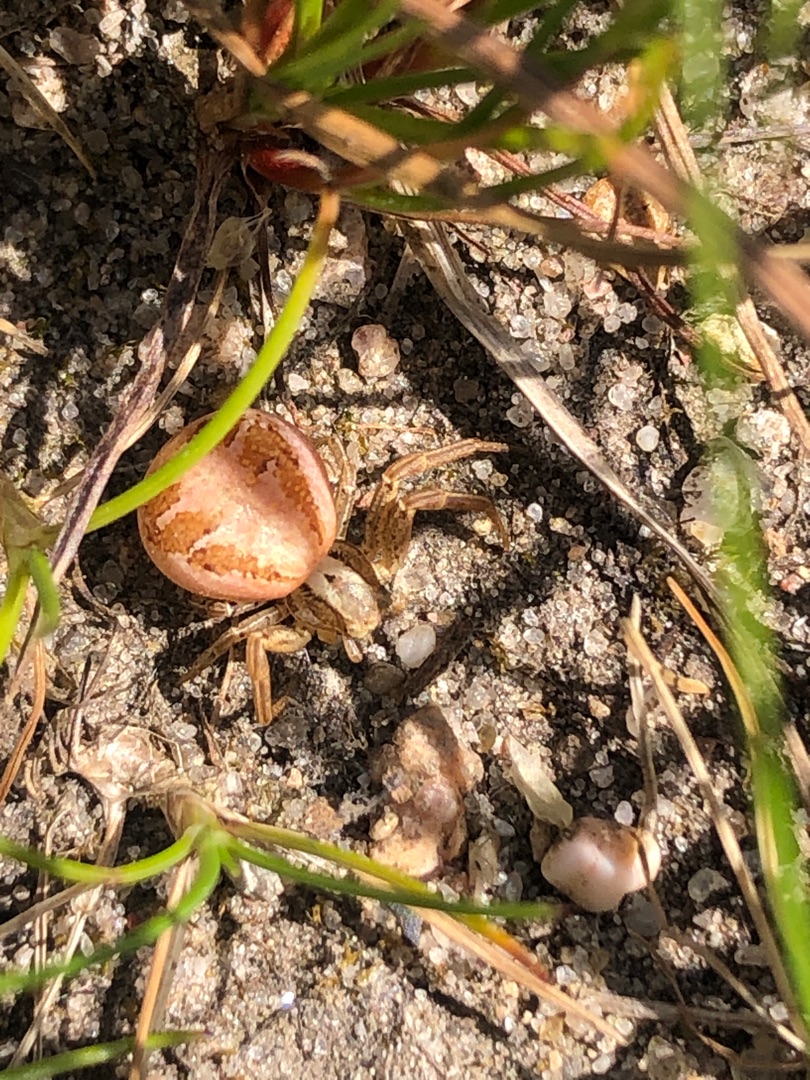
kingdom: Animalia
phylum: Arthropoda
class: Arachnida
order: Araneae
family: Thomisidae
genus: Xysticus
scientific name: Xysticus
